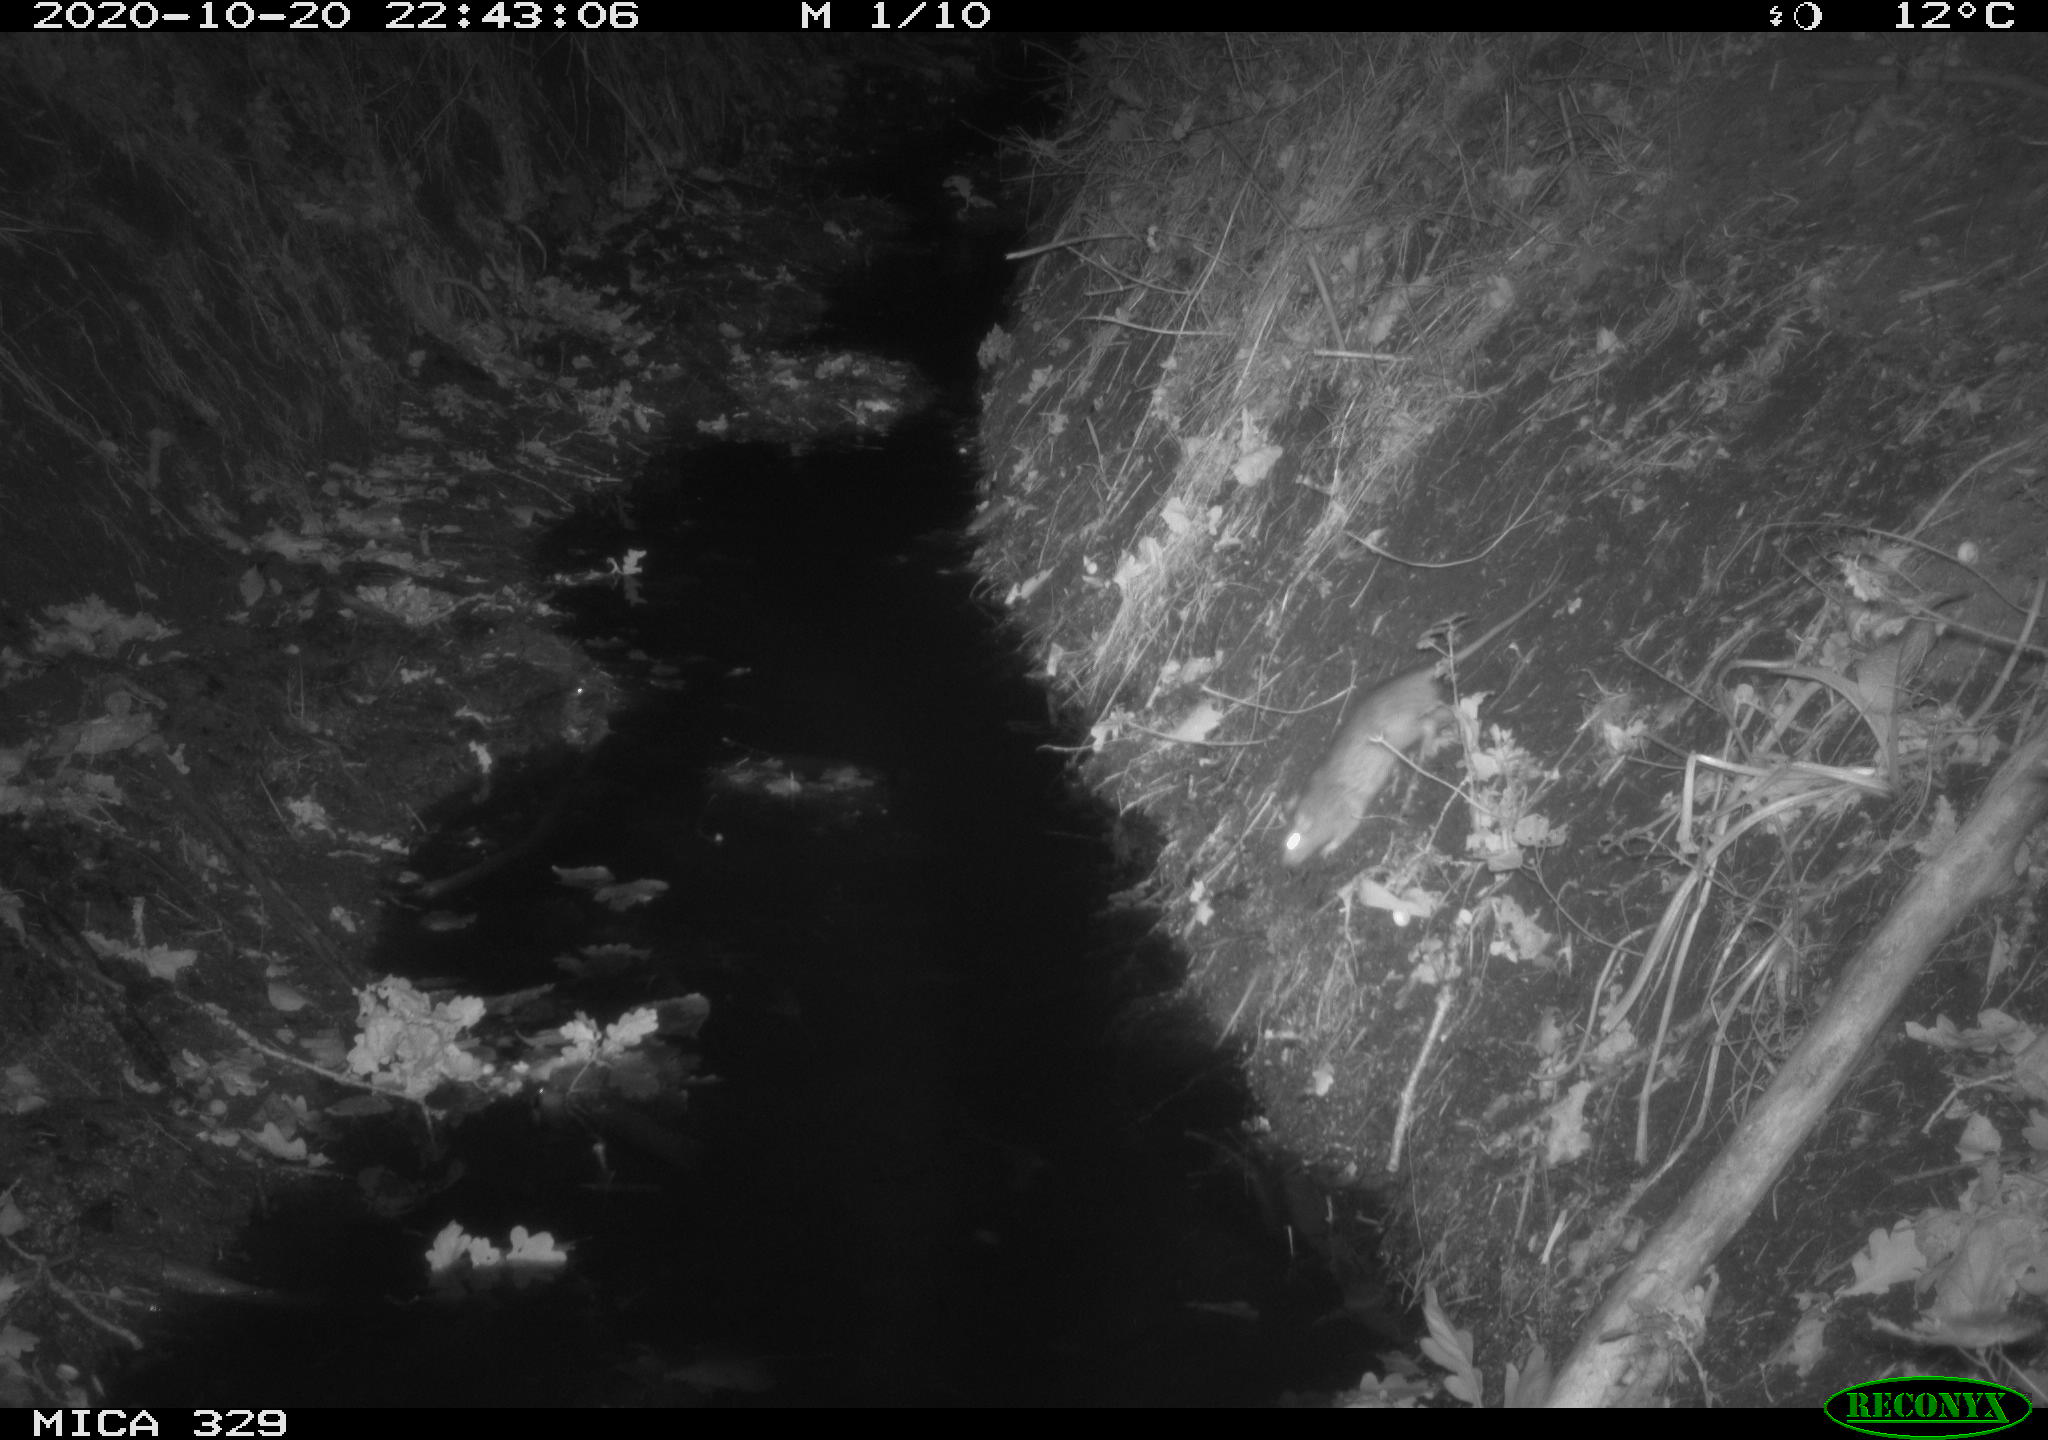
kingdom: Animalia
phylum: Chordata
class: Mammalia
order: Rodentia
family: Muridae
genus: Rattus
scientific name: Rattus norvegicus
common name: Brown rat
